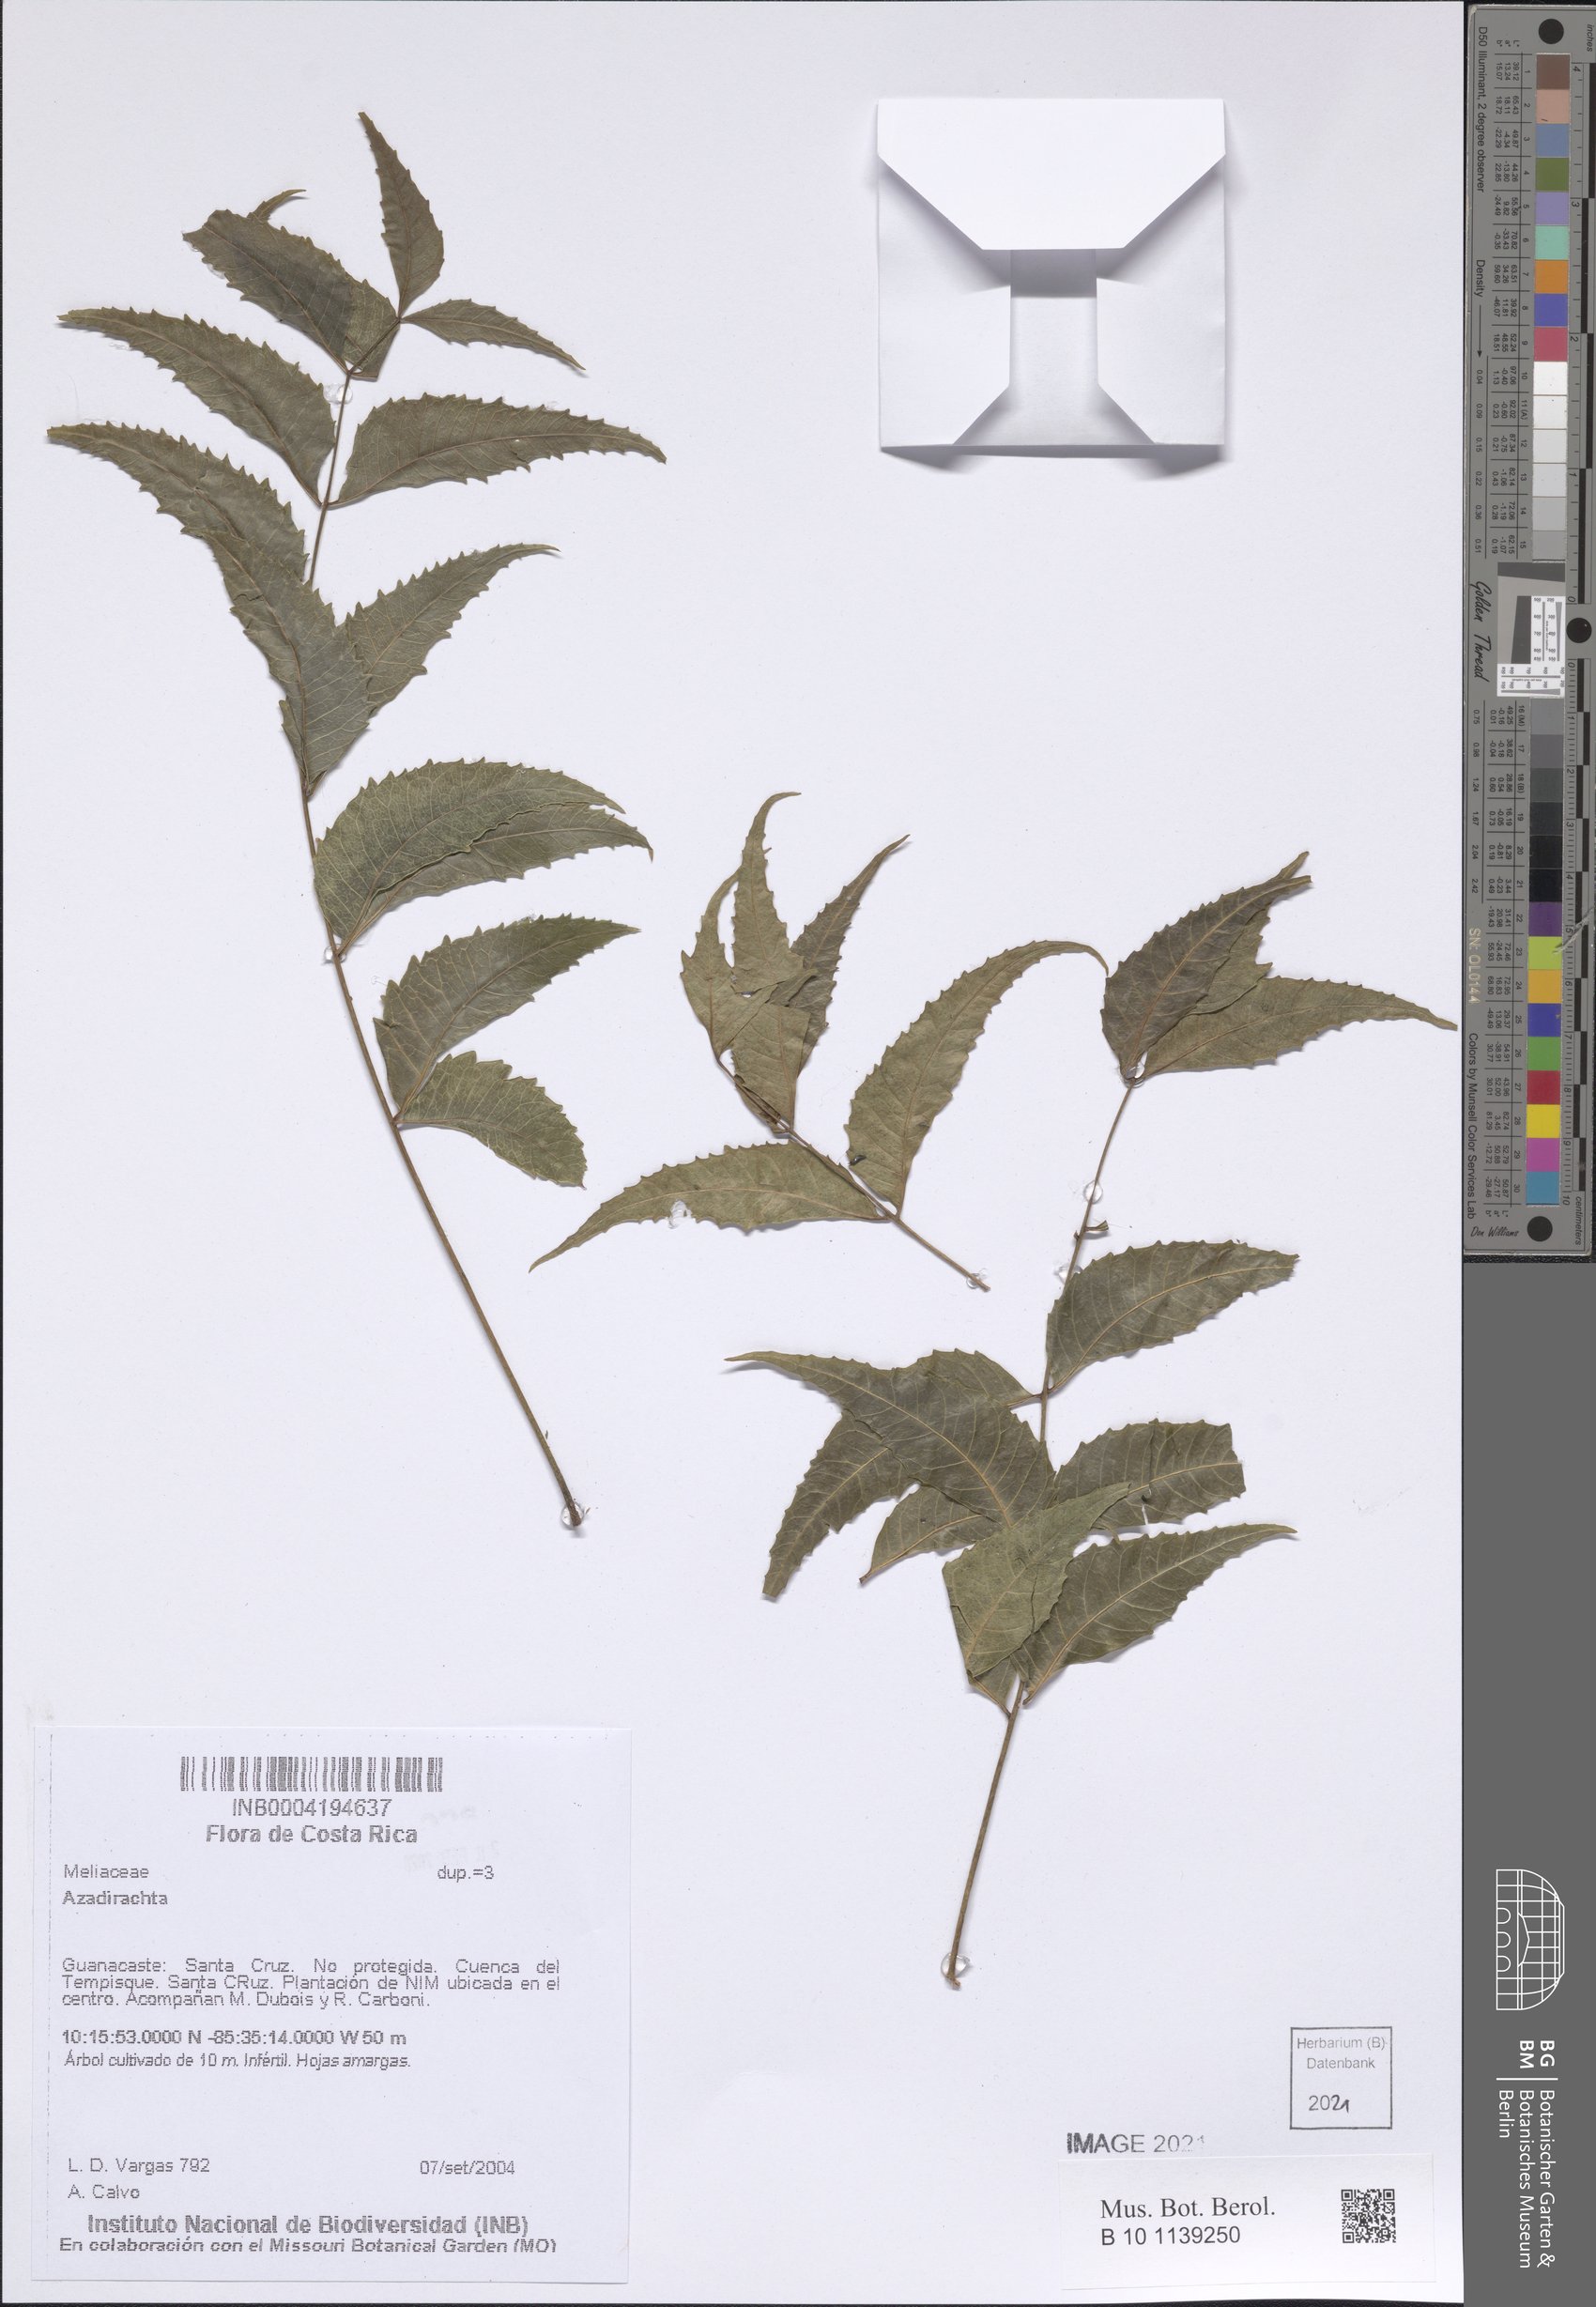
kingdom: Plantae
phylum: Tracheophyta
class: Magnoliopsida
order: Sapindales
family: Meliaceae
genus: Azadirachta
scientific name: Azadirachta
